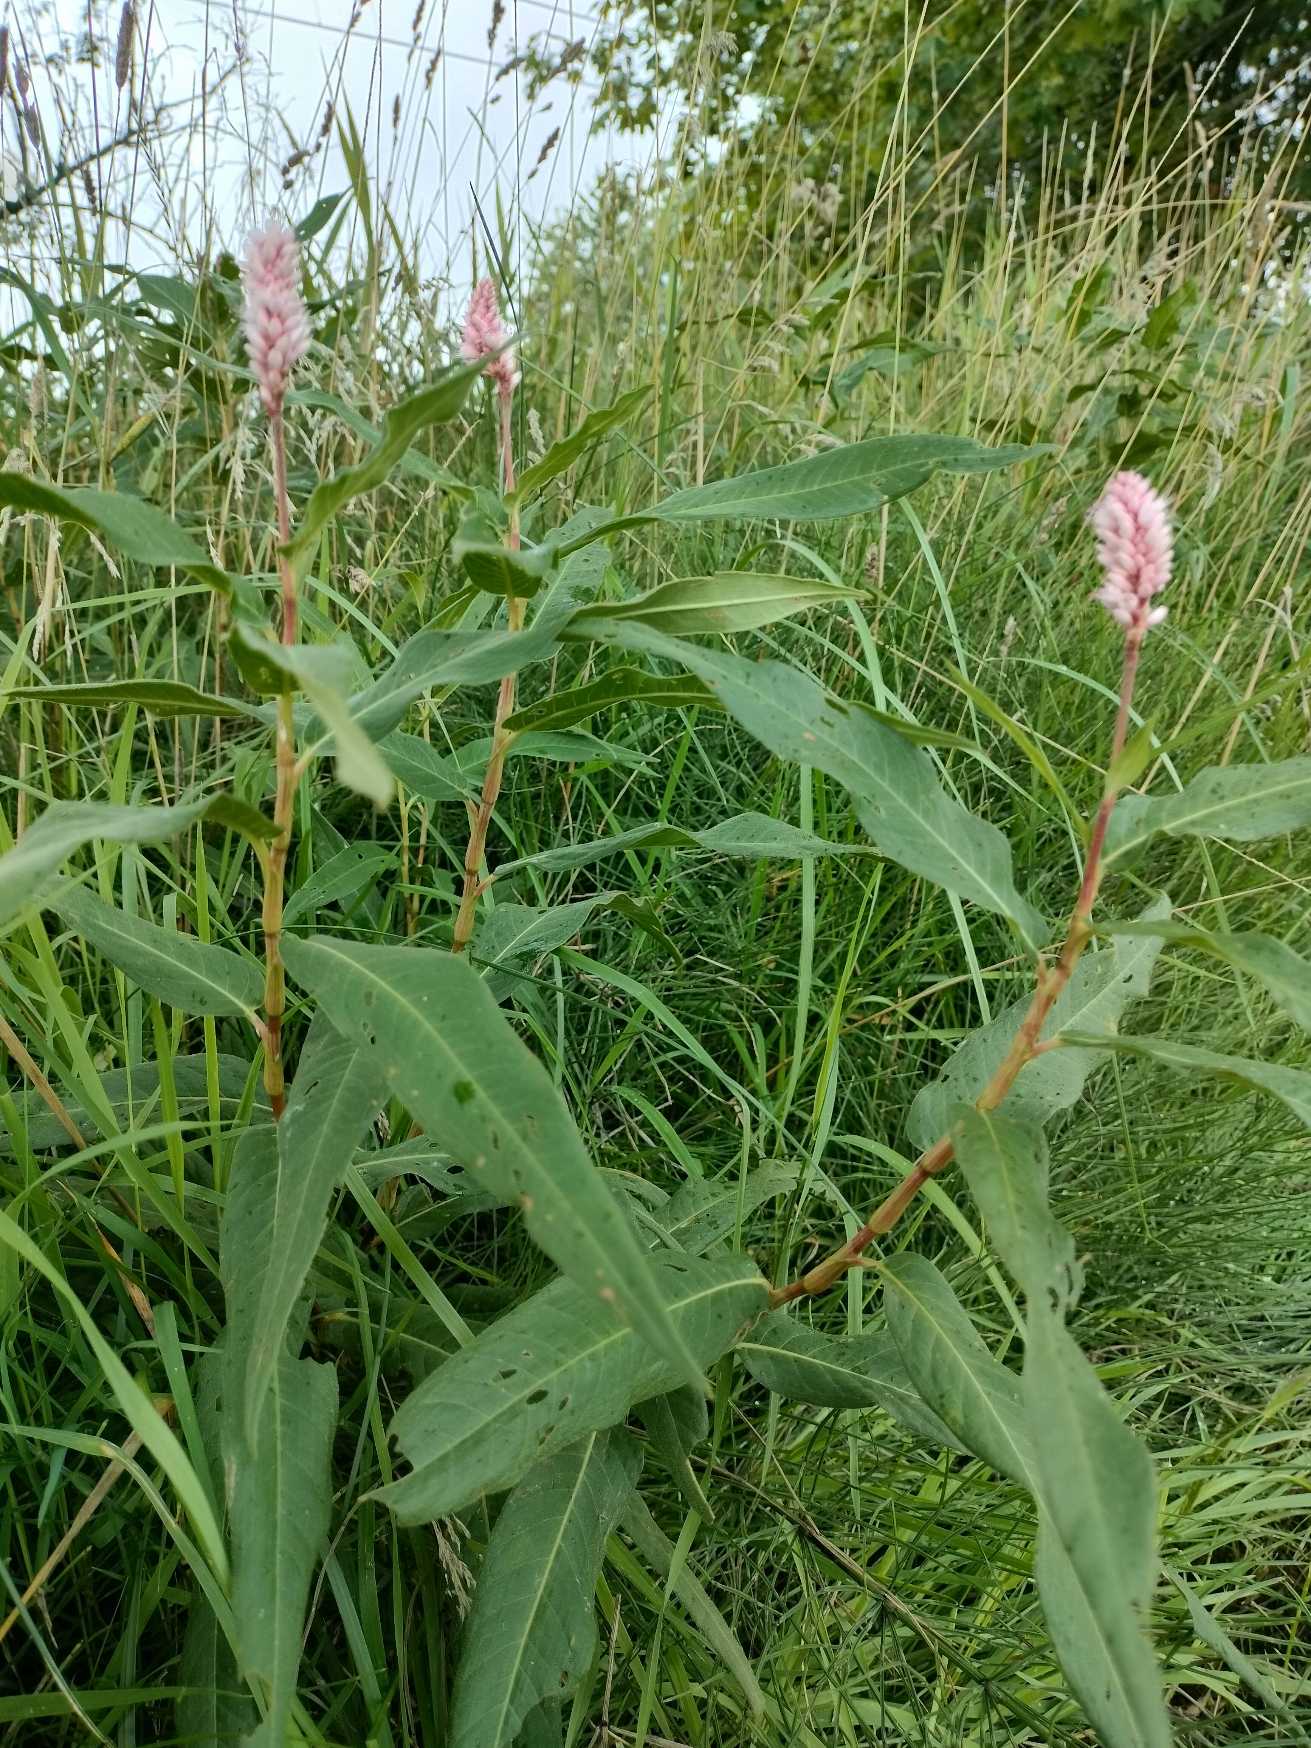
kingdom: Plantae
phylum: Tracheophyta
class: Magnoliopsida
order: Caryophyllales
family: Polygonaceae
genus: Persicaria
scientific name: Persicaria amphibia
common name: Vand-pileurt
